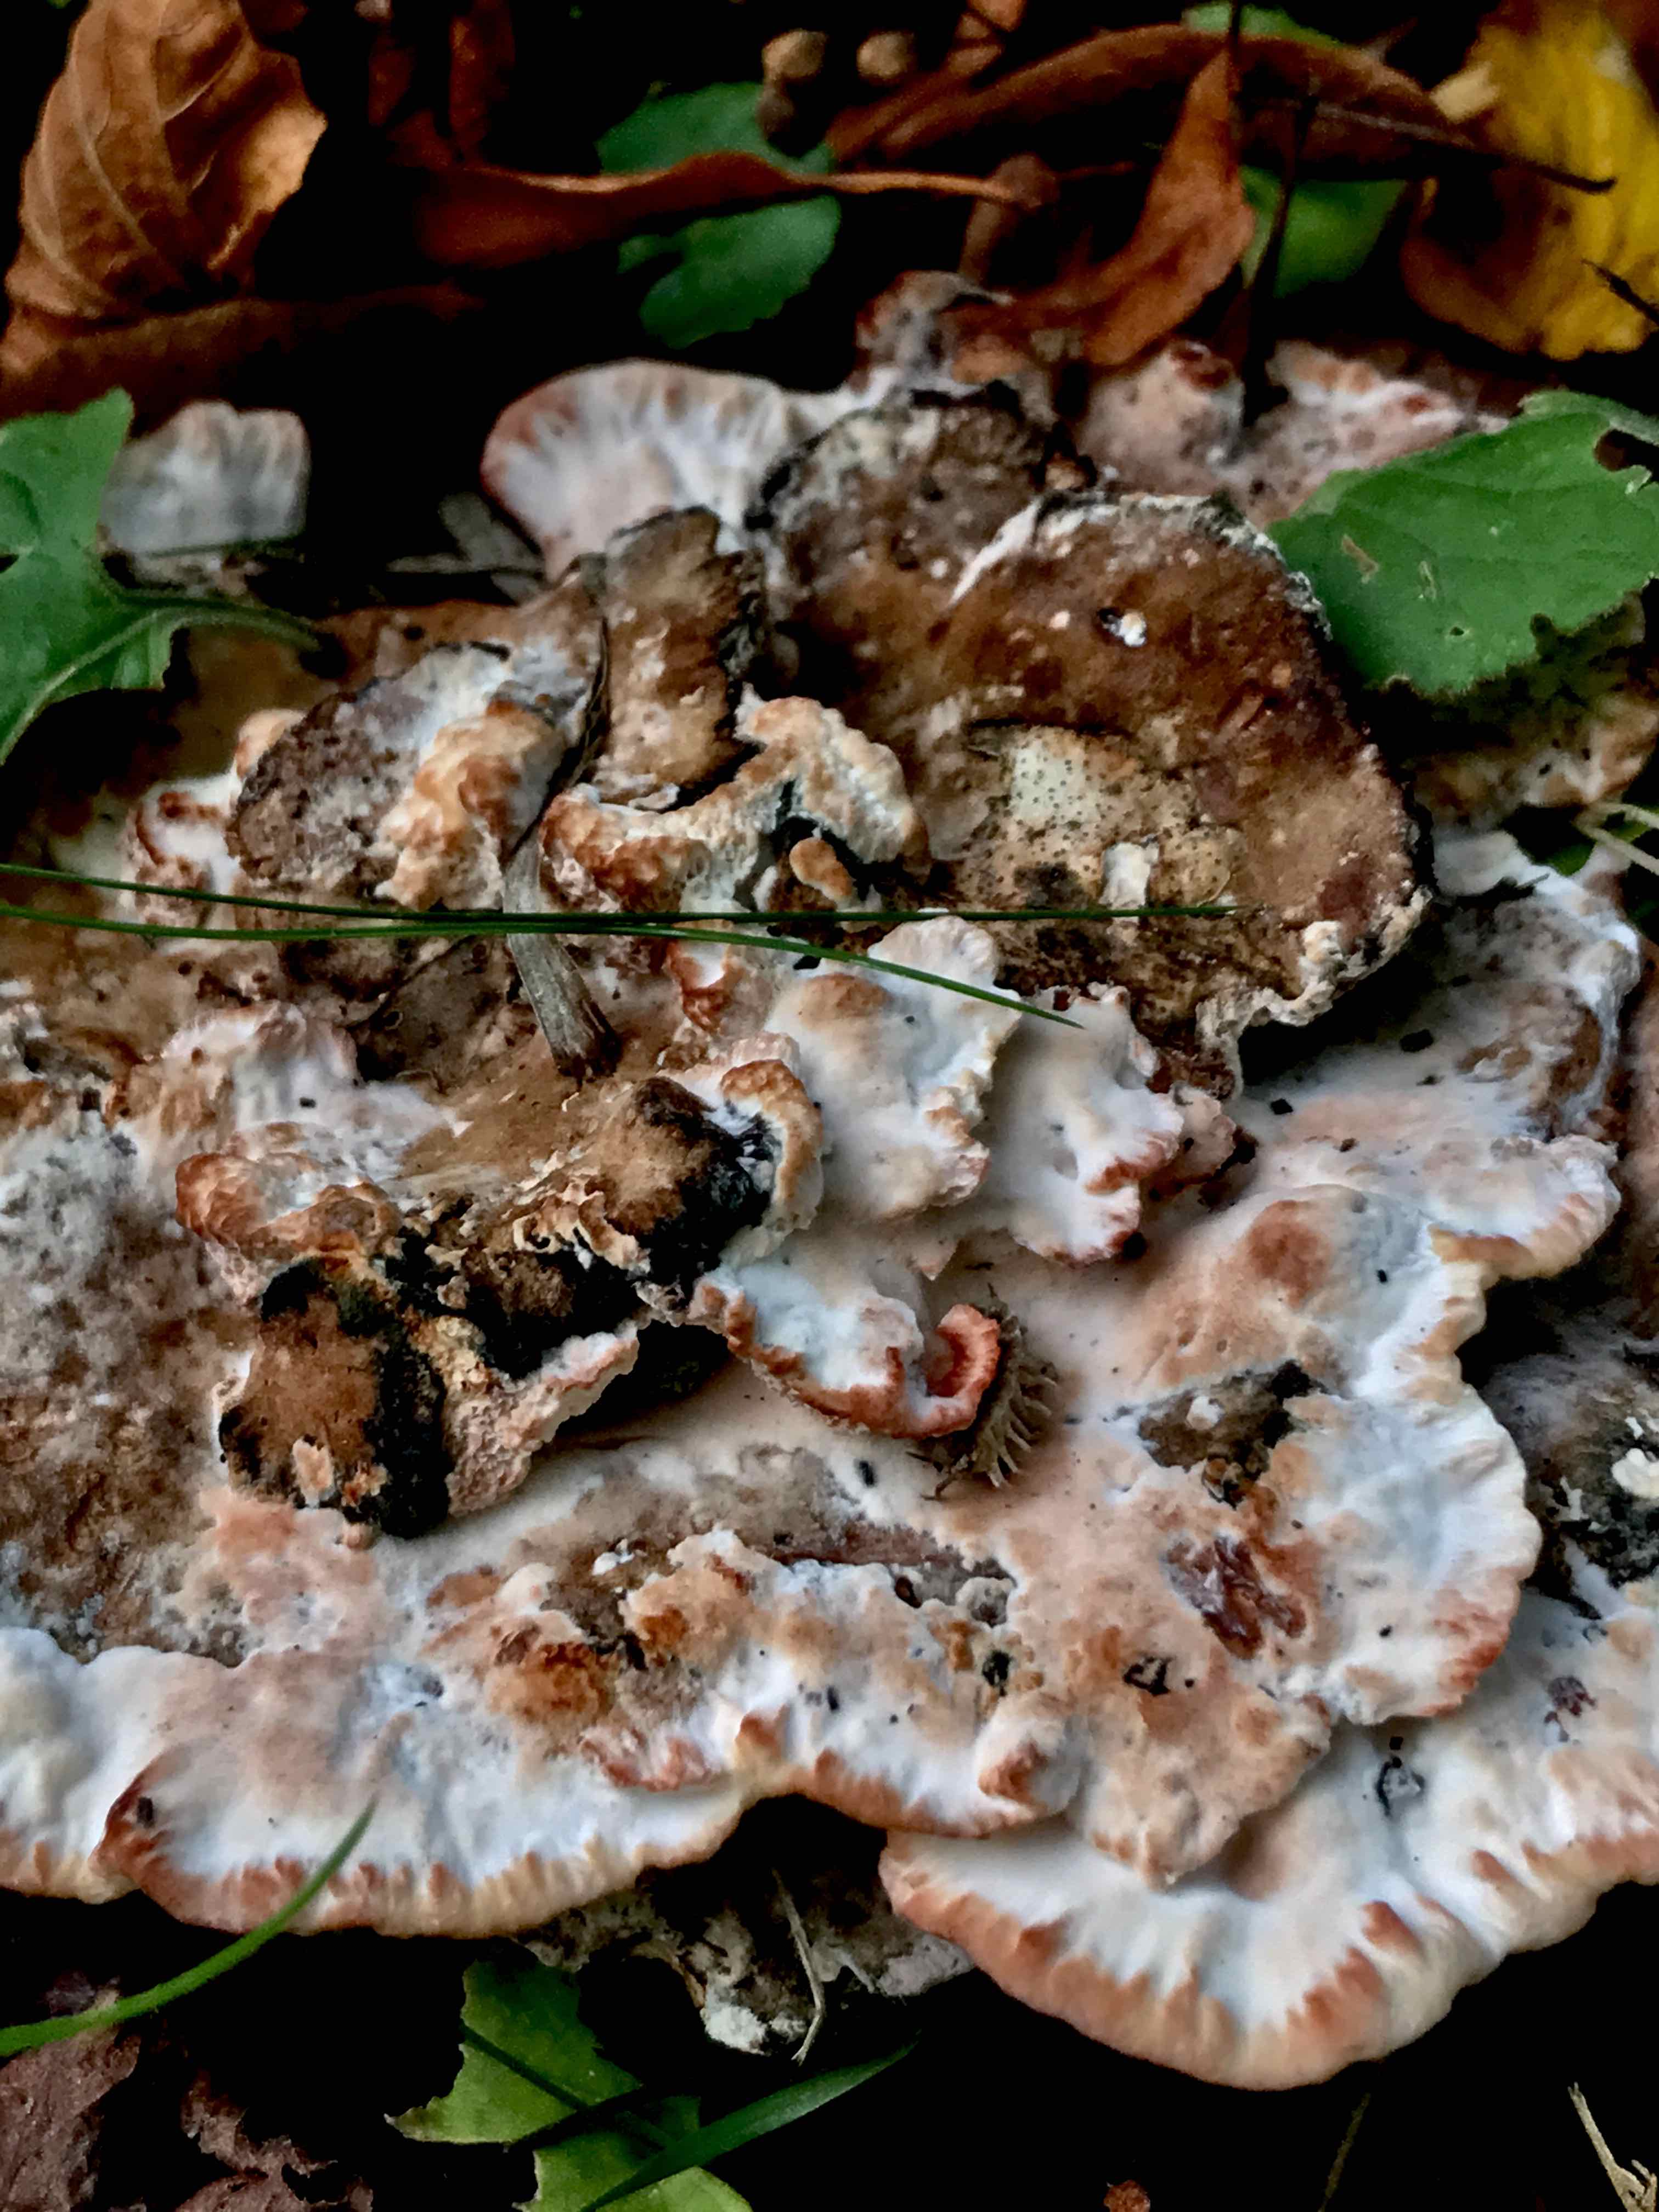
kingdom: Fungi
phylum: Basidiomycota
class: Agaricomycetes
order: Polyporales
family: Podoscyphaceae
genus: Abortiporus
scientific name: Abortiporus biennis
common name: rødmende pjalteporesvamp
